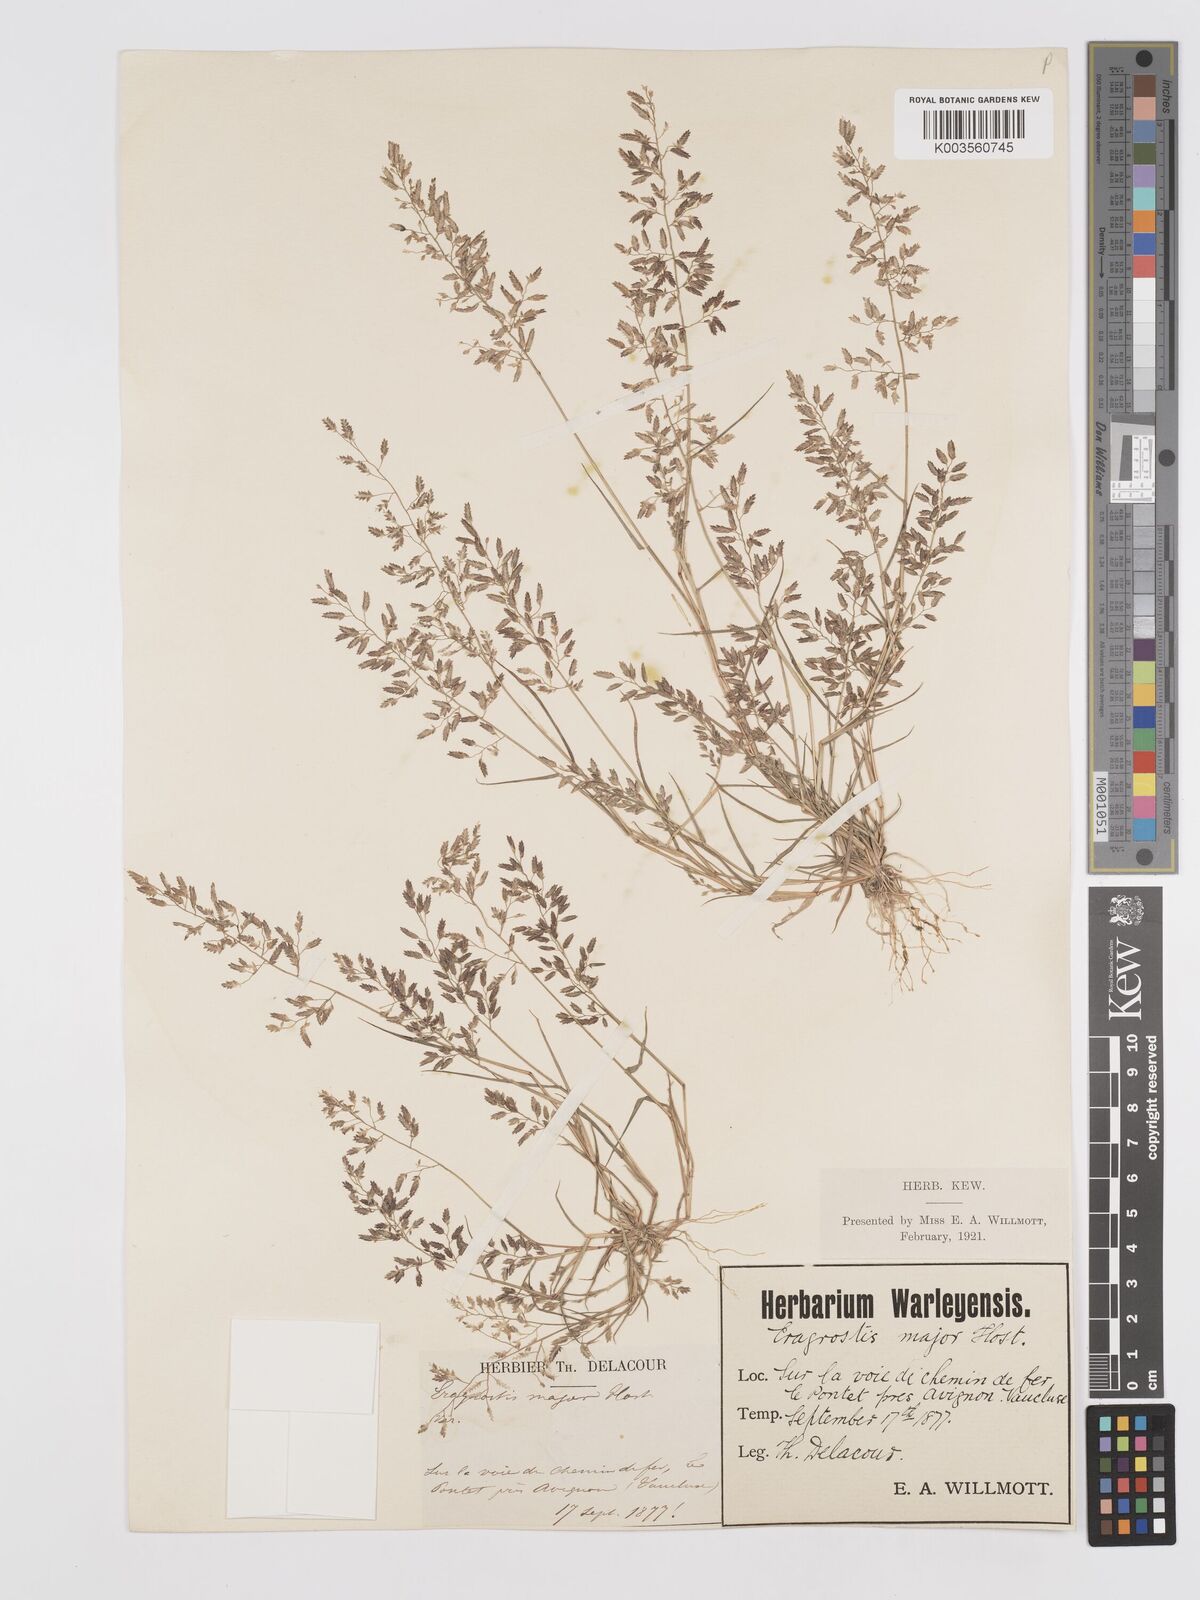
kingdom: Plantae
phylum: Tracheophyta
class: Liliopsida
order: Poales
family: Poaceae
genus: Eragrostis
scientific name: Eragrostis minor
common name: Small love-grass
